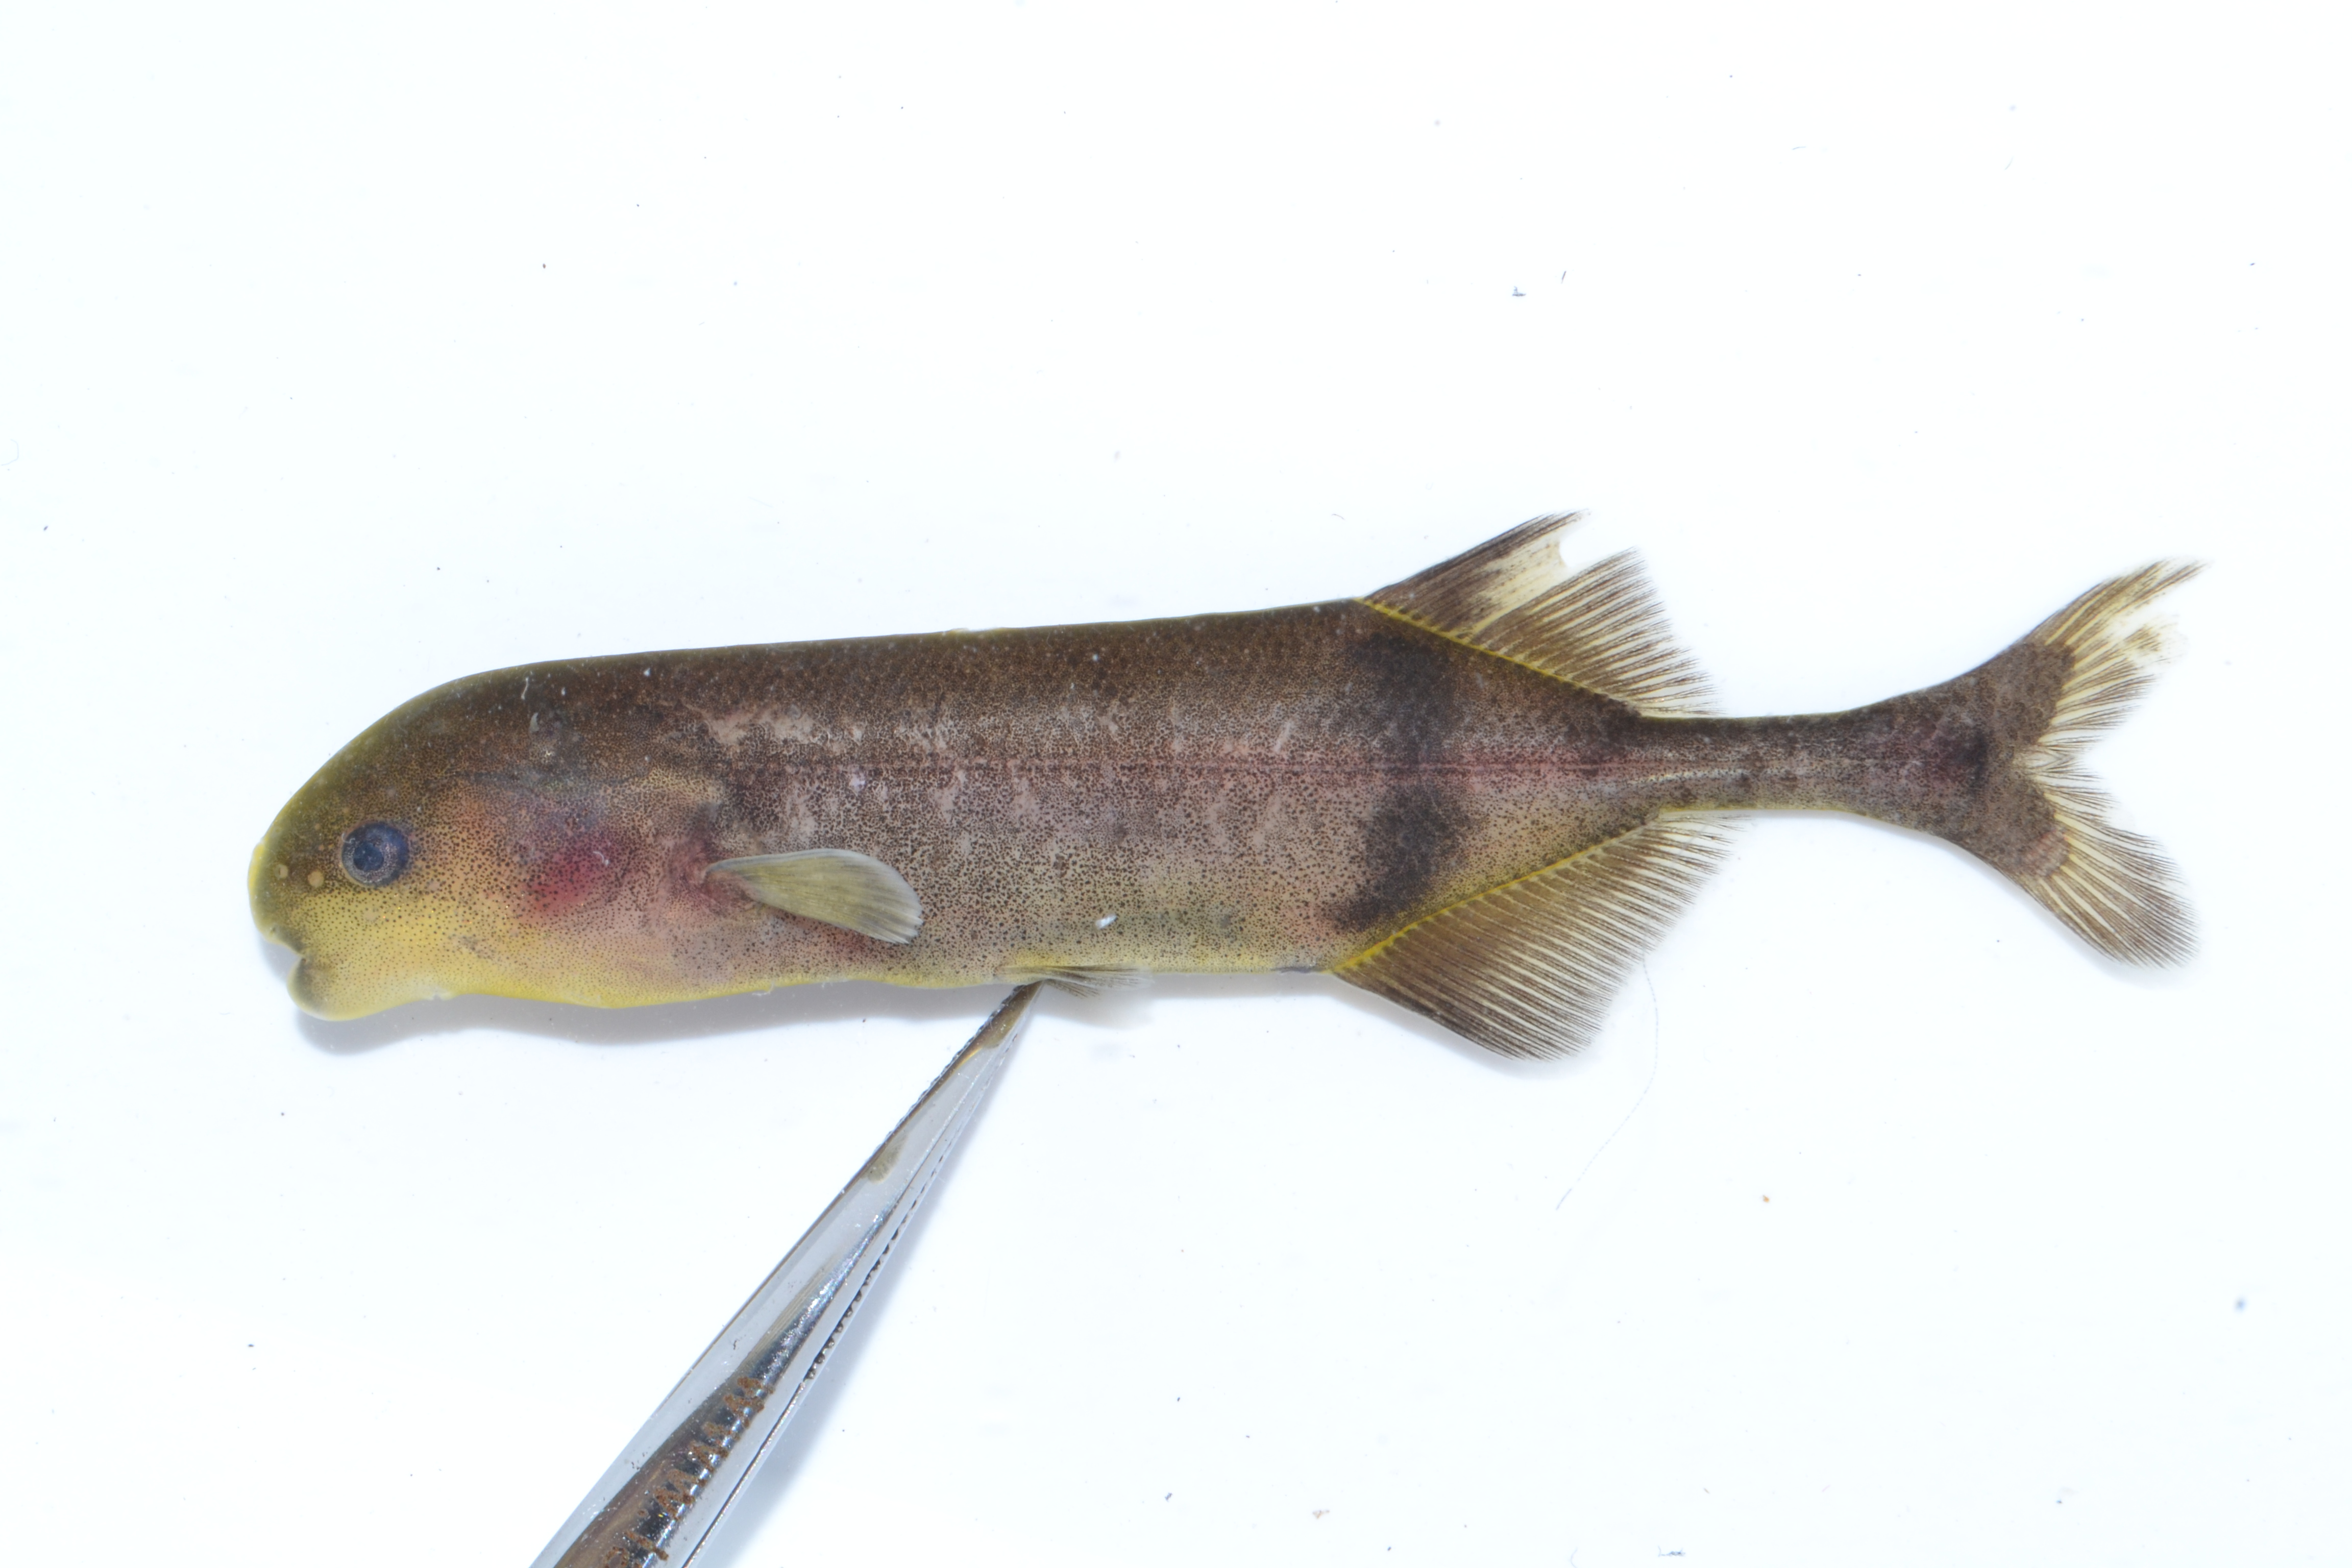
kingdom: Animalia
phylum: Chordata
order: Osteoglossiformes
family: Mormyridae
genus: Hippopotamyrus
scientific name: Hippopotamyrus szaboi
